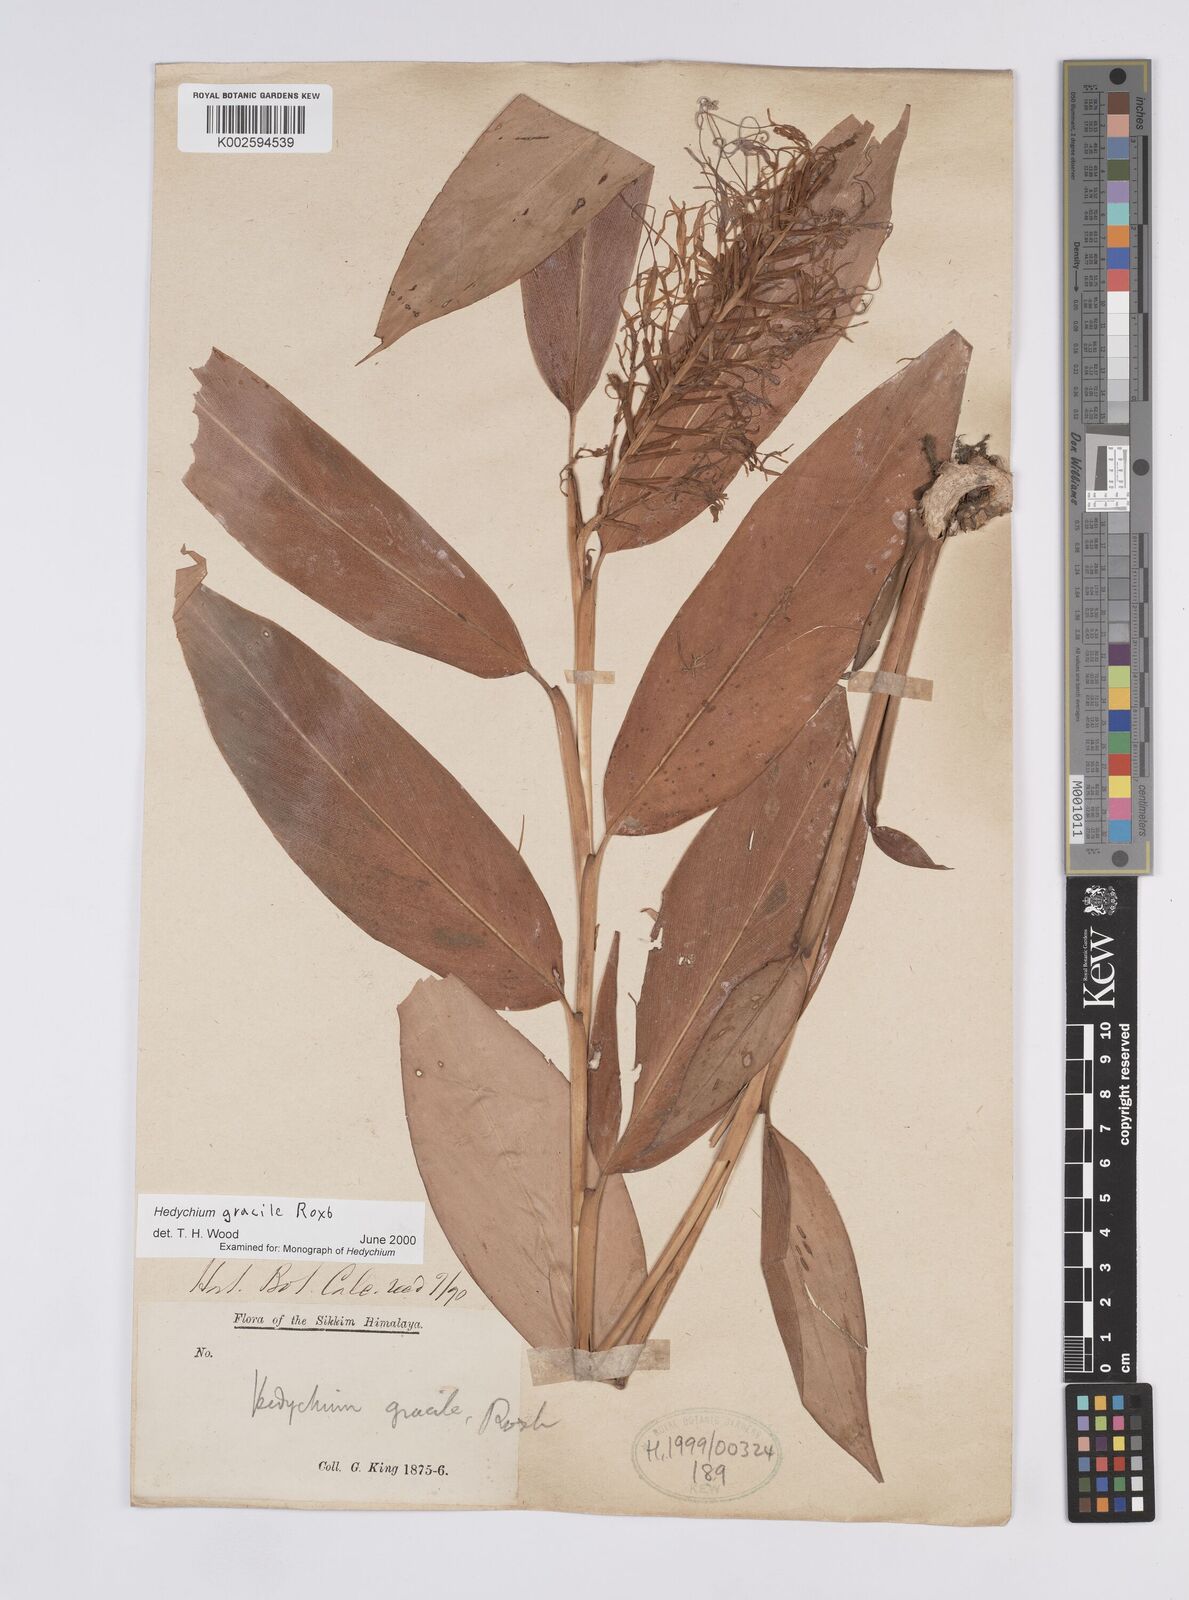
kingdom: Plantae
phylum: Tracheophyta
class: Liliopsida
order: Zingiberales
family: Zingiberaceae
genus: Hedychium
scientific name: Hedychium glaucum
